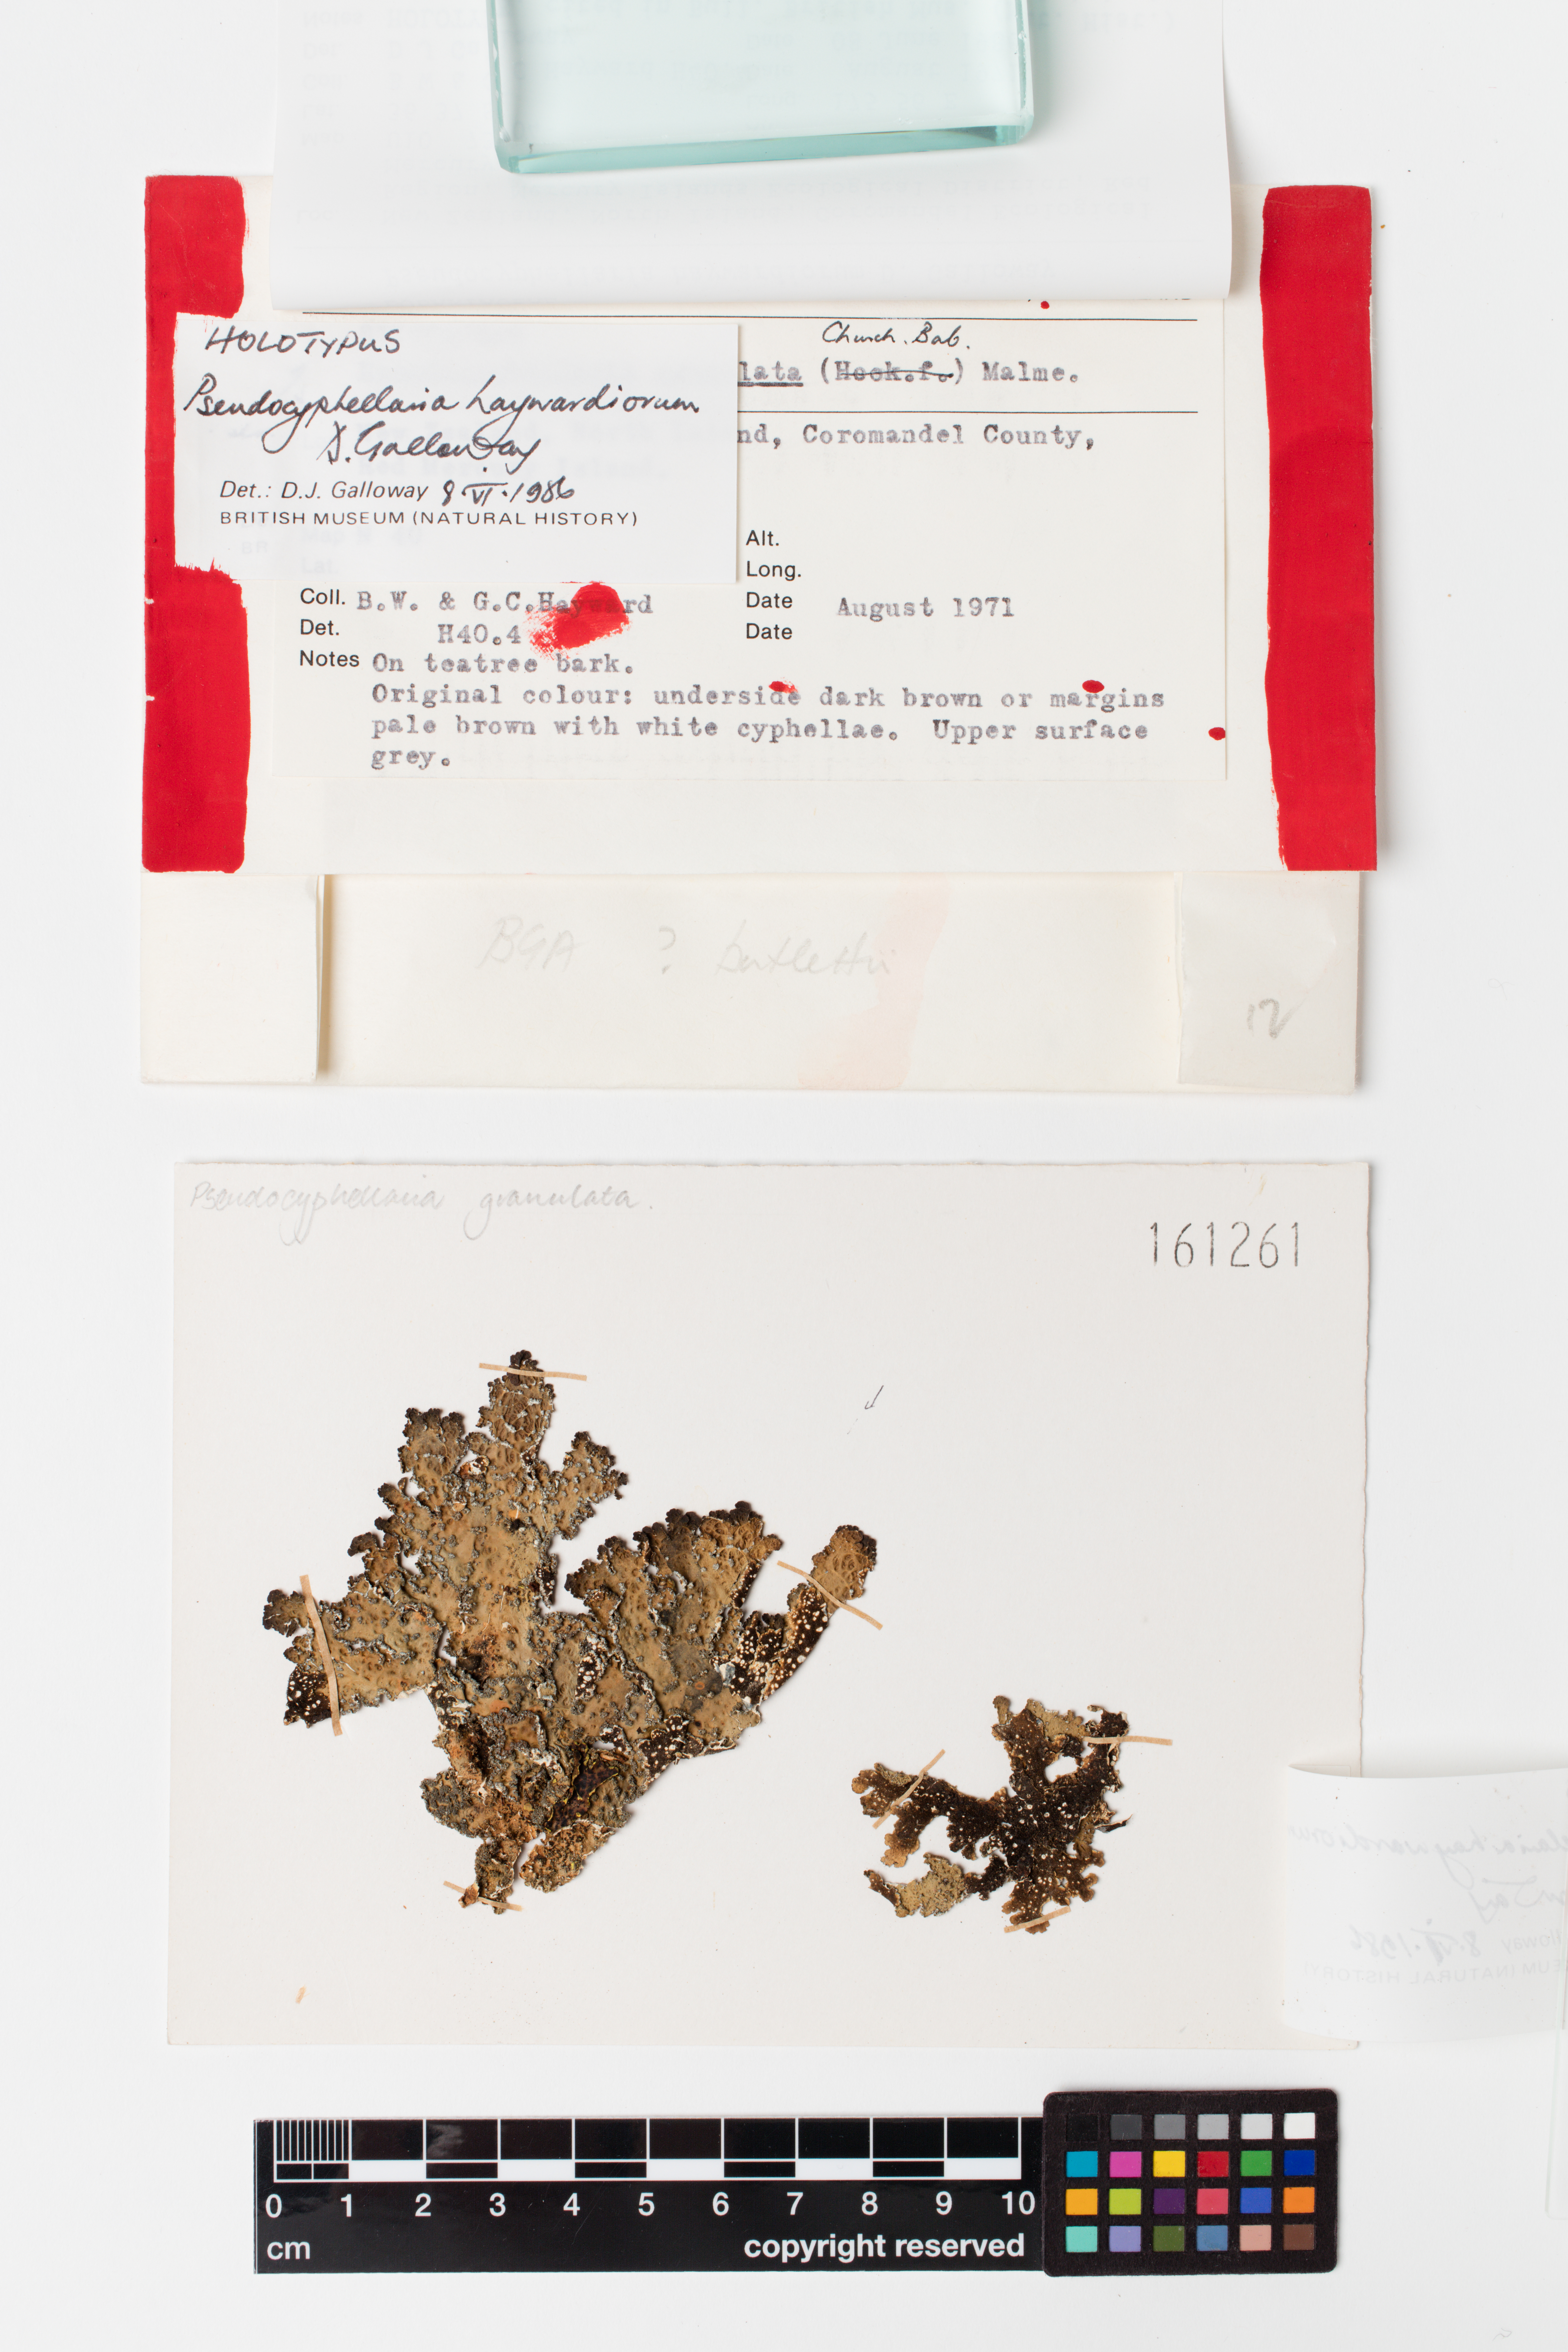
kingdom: Fungi
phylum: Ascomycota
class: Lecanoromycetes
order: Peltigerales
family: Lobariaceae
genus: Pseudocyphellaria
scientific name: Pseudocyphellaria haywardiorum
